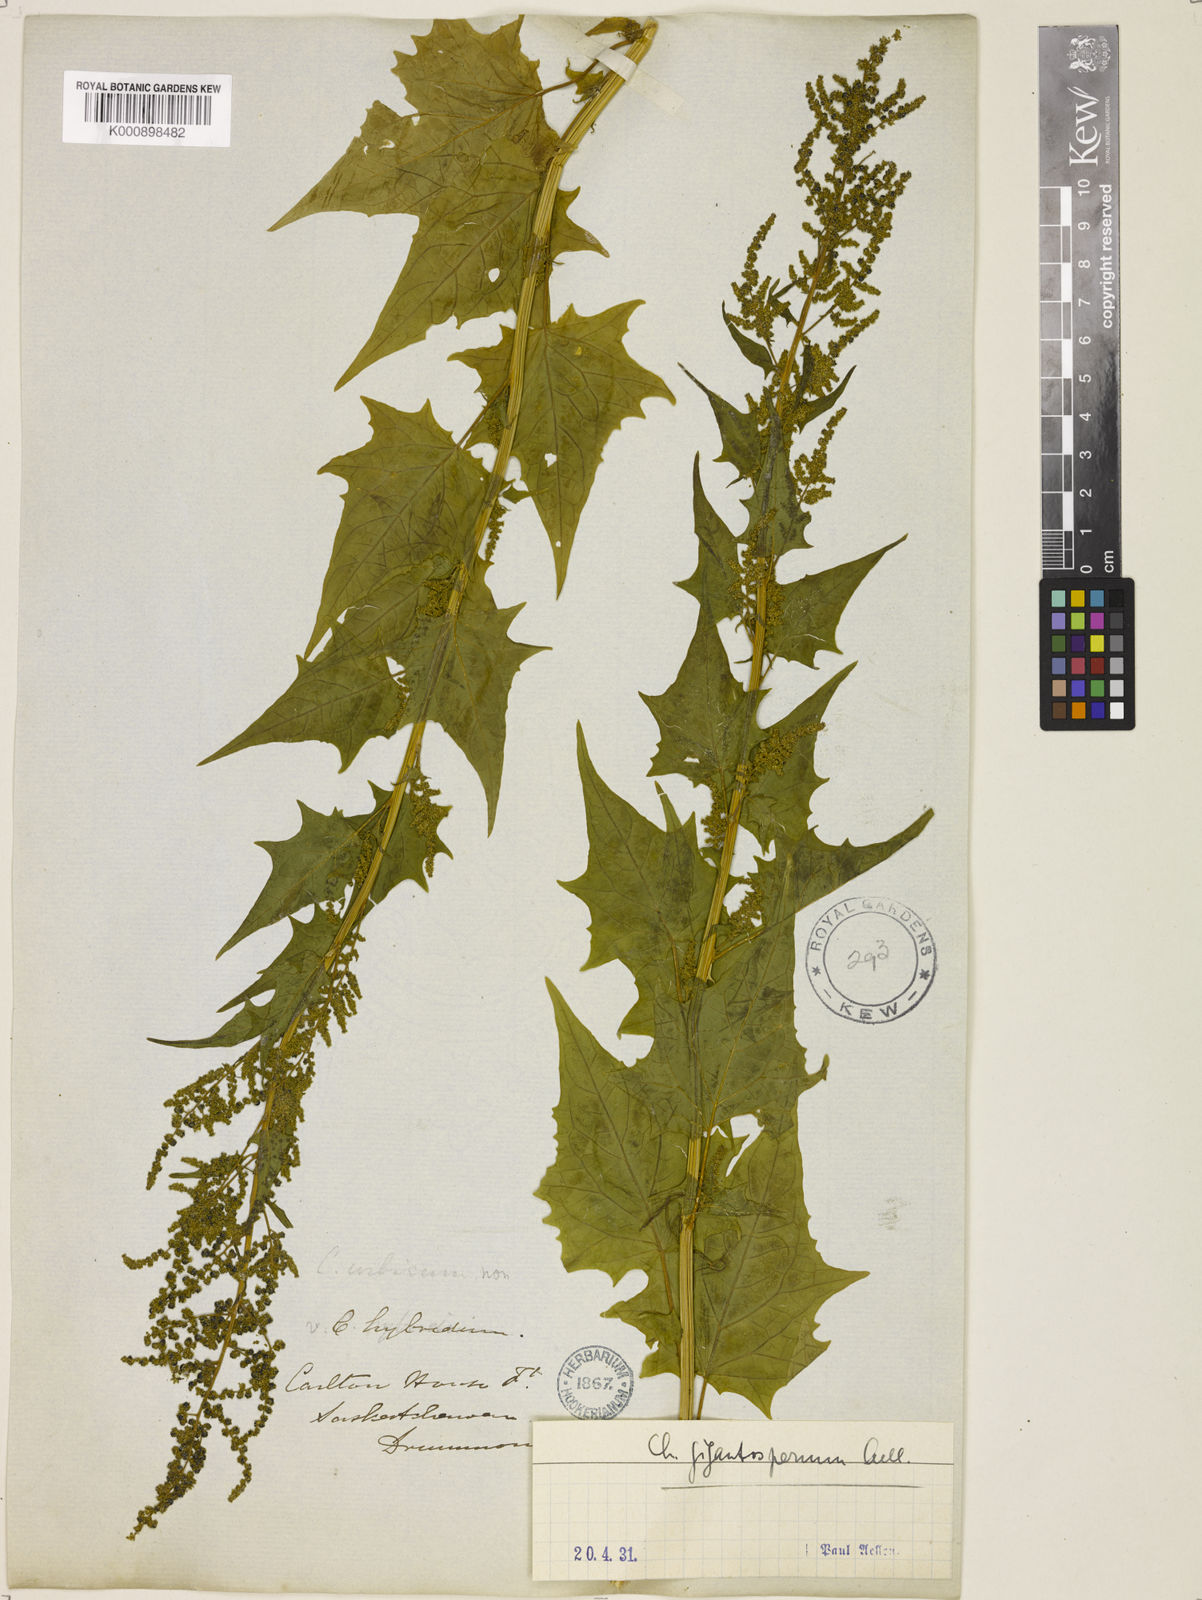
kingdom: Plantae
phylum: Tracheophyta
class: Magnoliopsida
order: Caryophyllales
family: Amaranthaceae
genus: Chenopodiastrum
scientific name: Chenopodiastrum simplex
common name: Large-seed goosefoot
